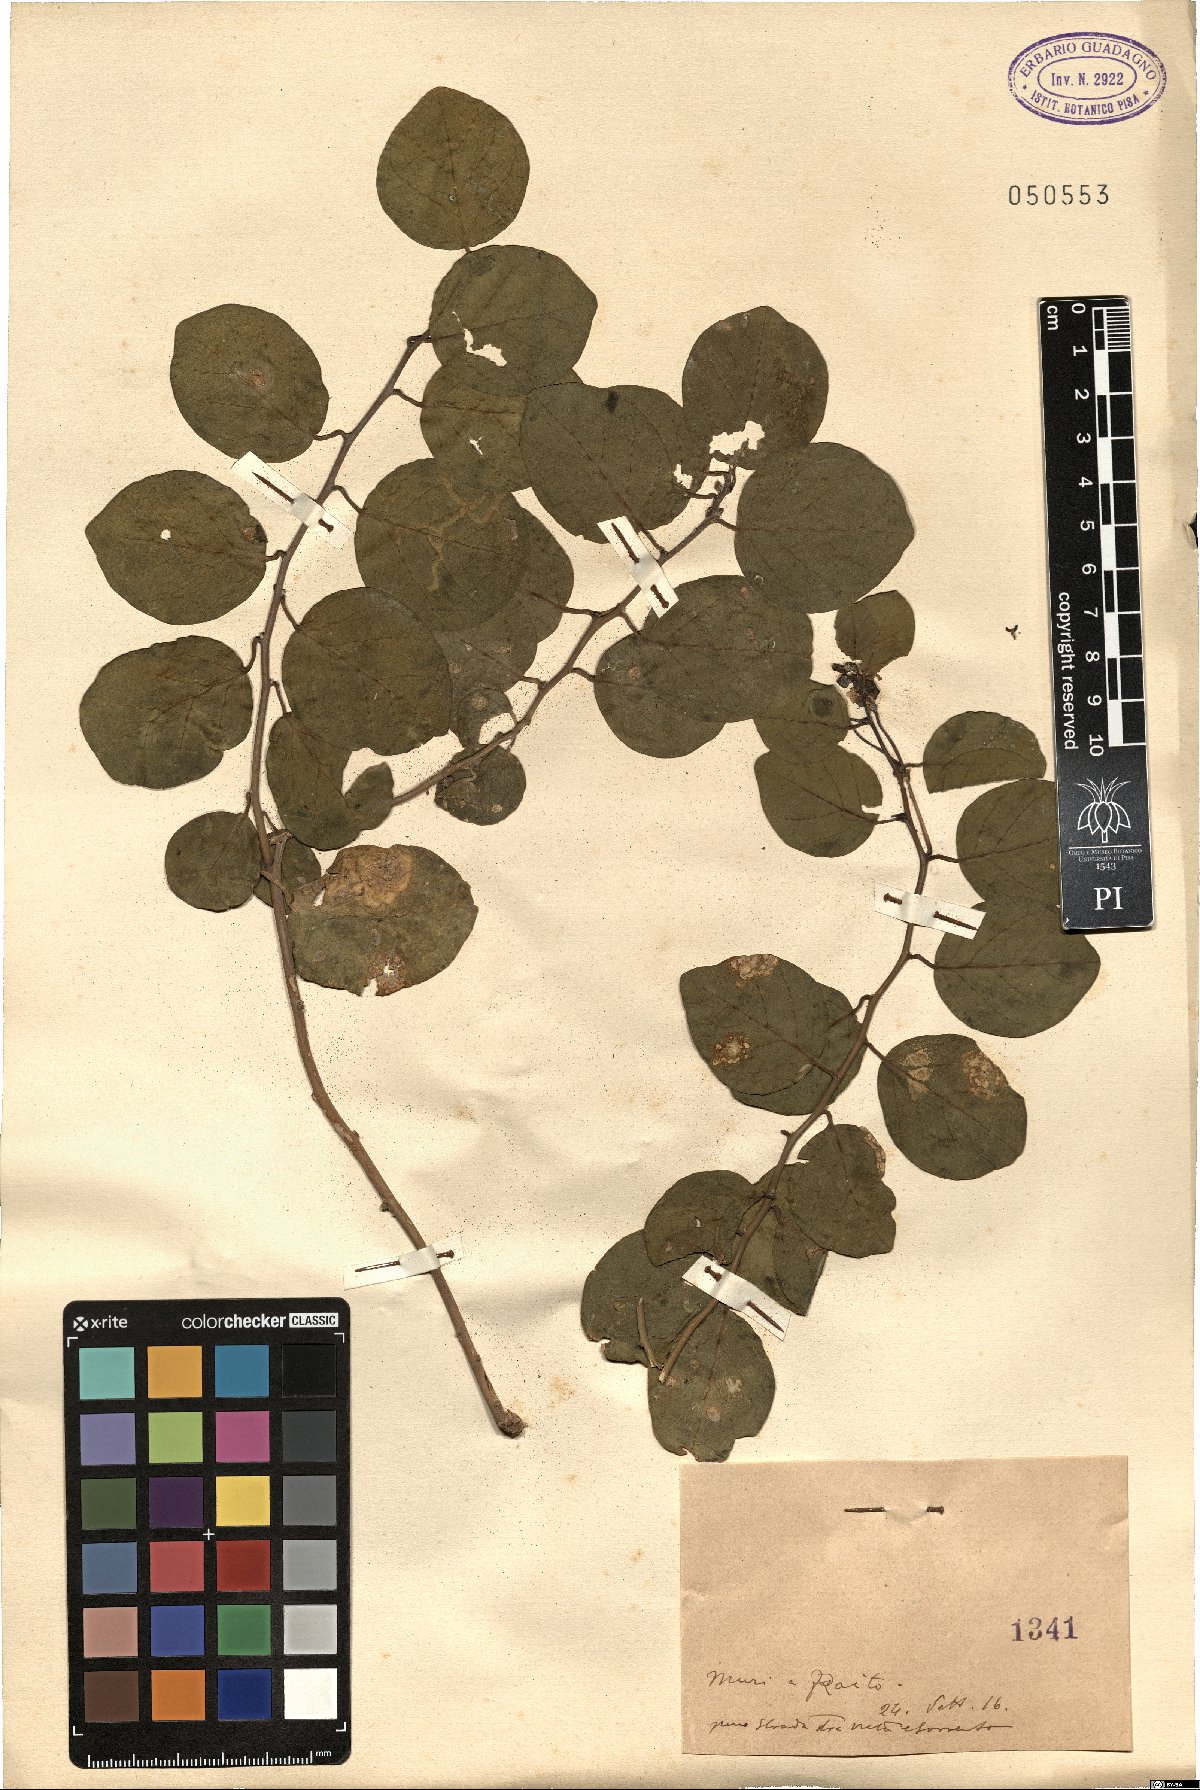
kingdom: Plantae
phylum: Tracheophyta
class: Magnoliopsida
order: Brassicales
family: Capparaceae
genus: Capparis
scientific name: Capparis
